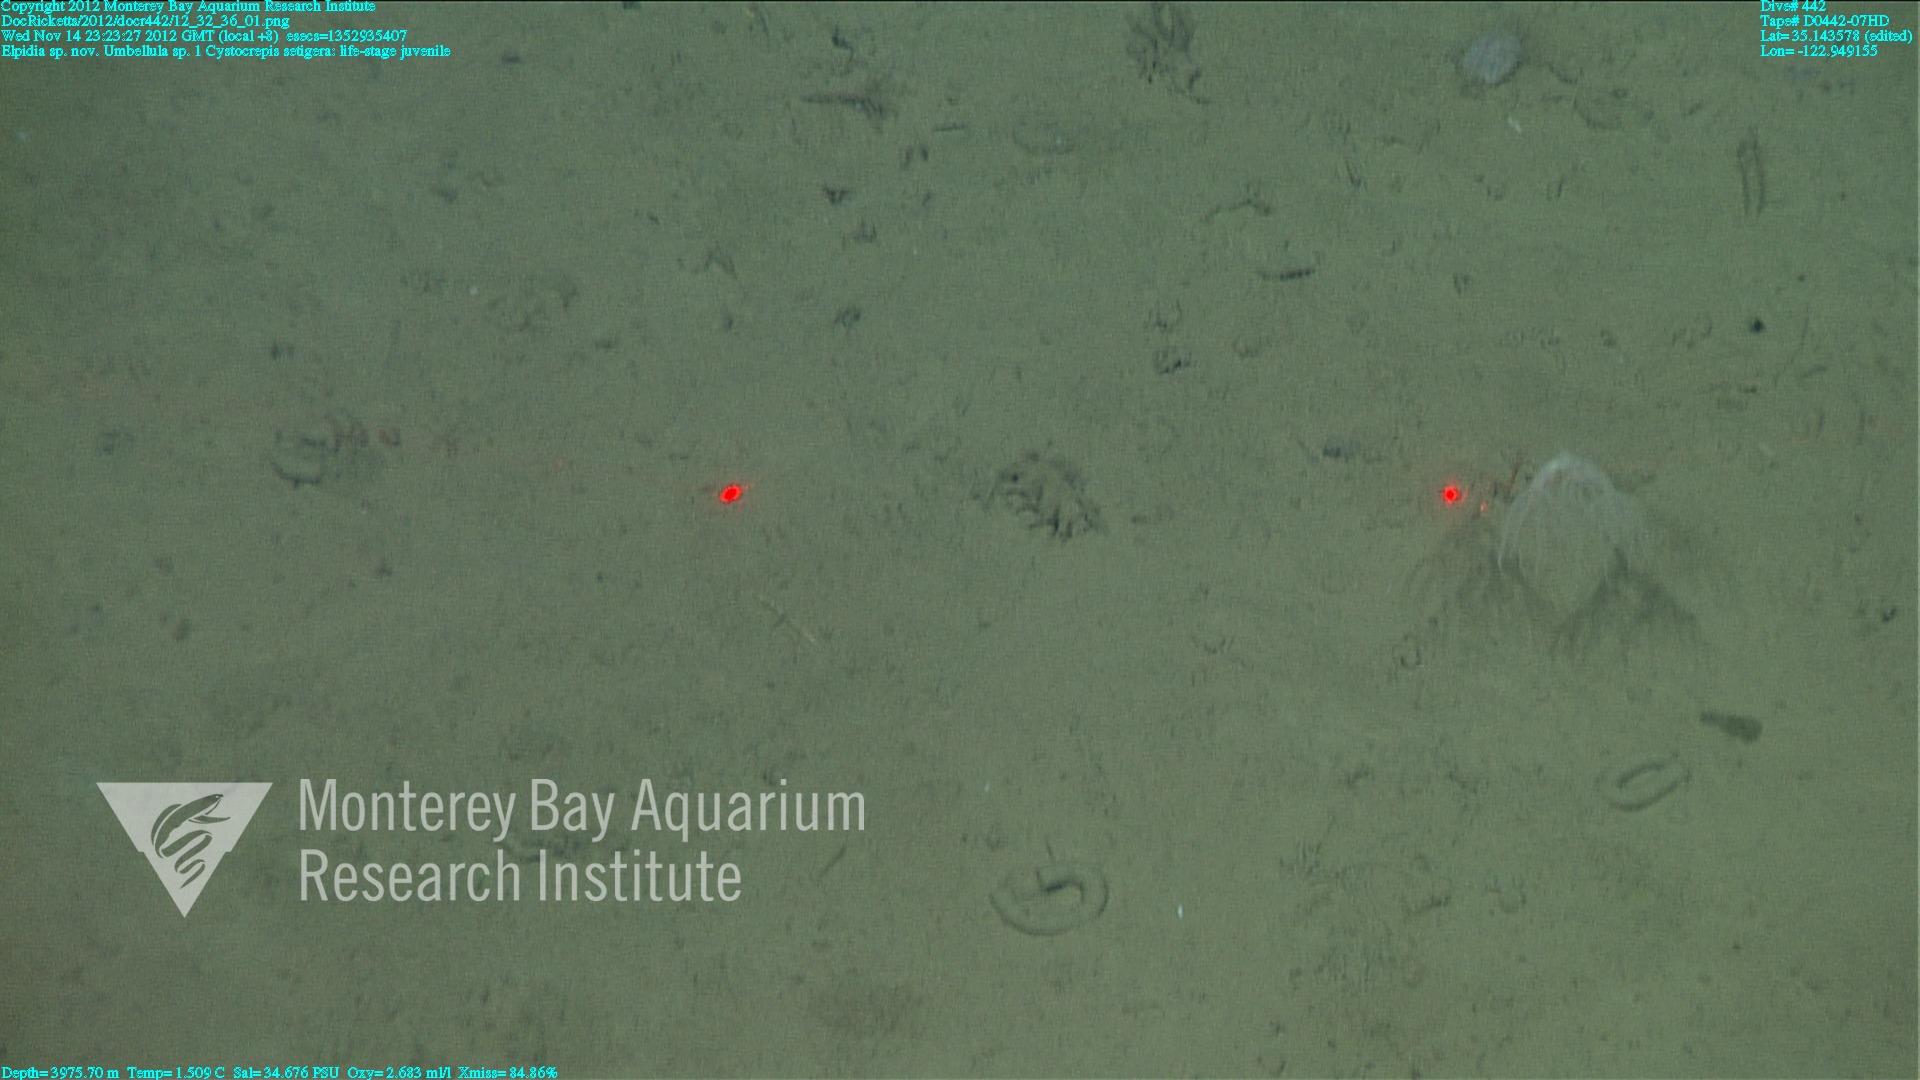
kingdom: Animalia
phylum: Cnidaria
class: Anthozoa
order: Scleralcyonacea
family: Umbellulidae
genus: Umbellula
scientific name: Umbellula
